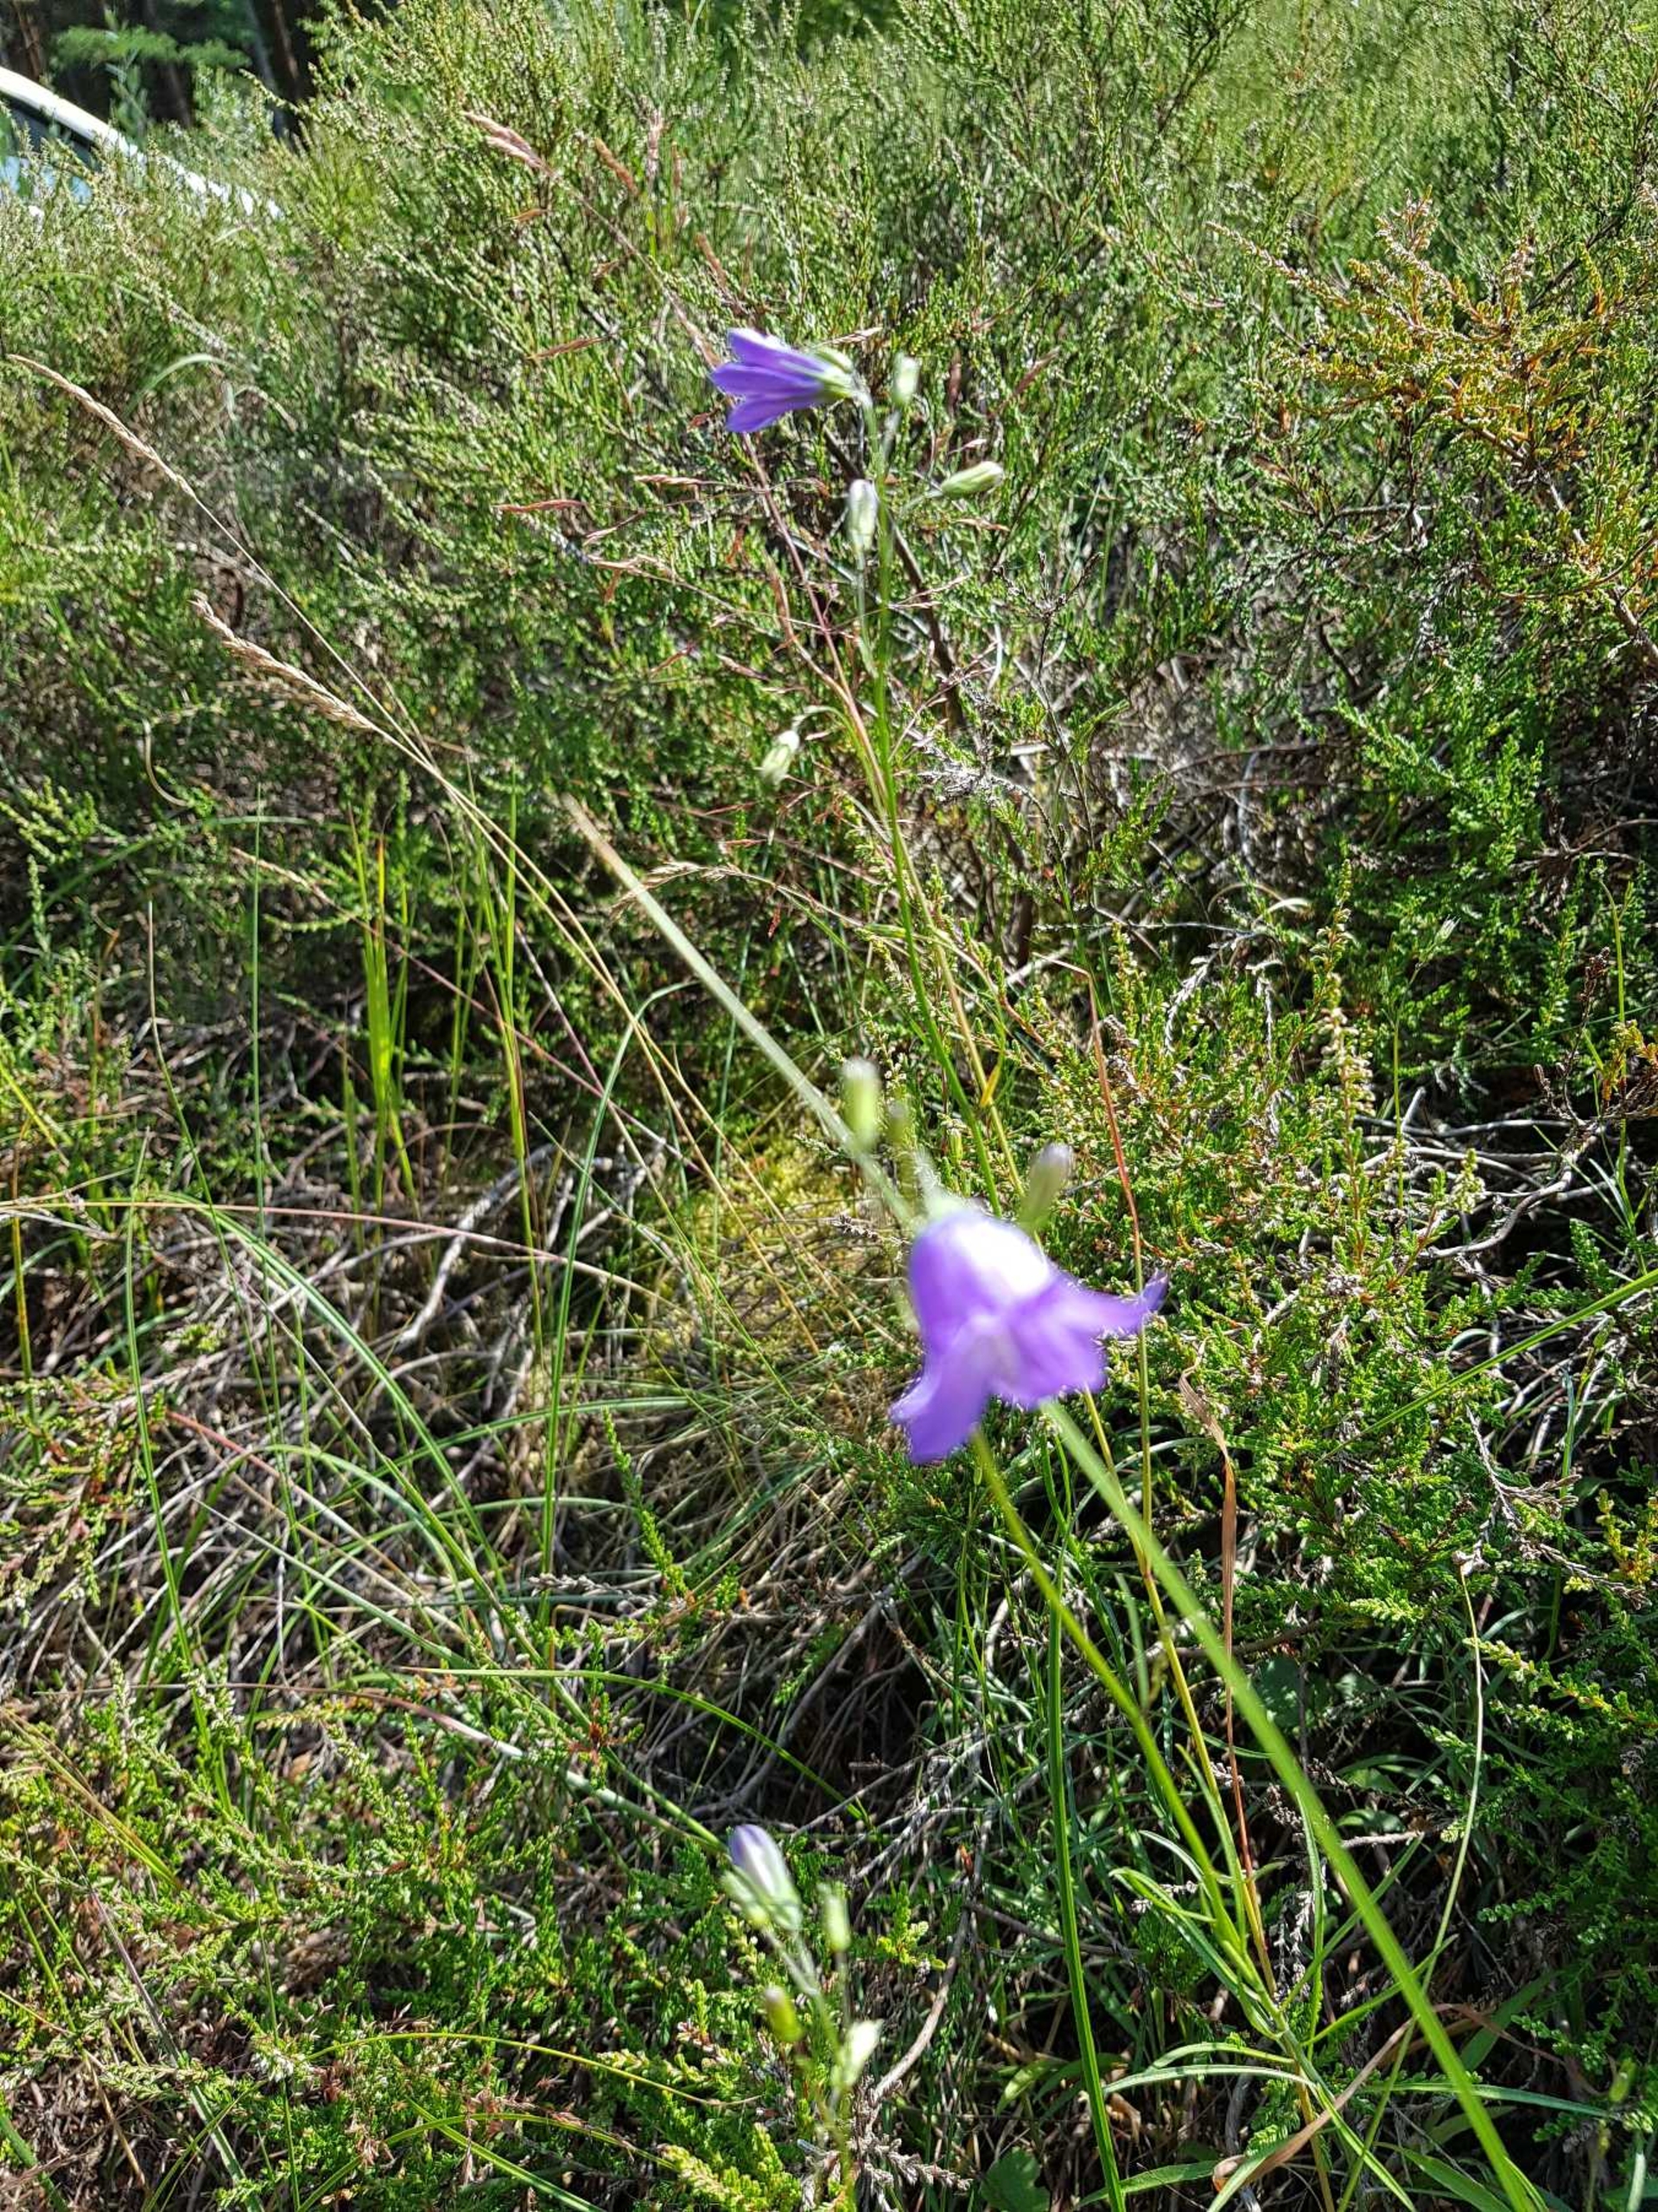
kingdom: Plantae
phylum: Tracheophyta
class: Magnoliopsida
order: Asterales
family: Campanulaceae
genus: Campanula
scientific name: Campanula rotundifolia
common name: Liden klokke
